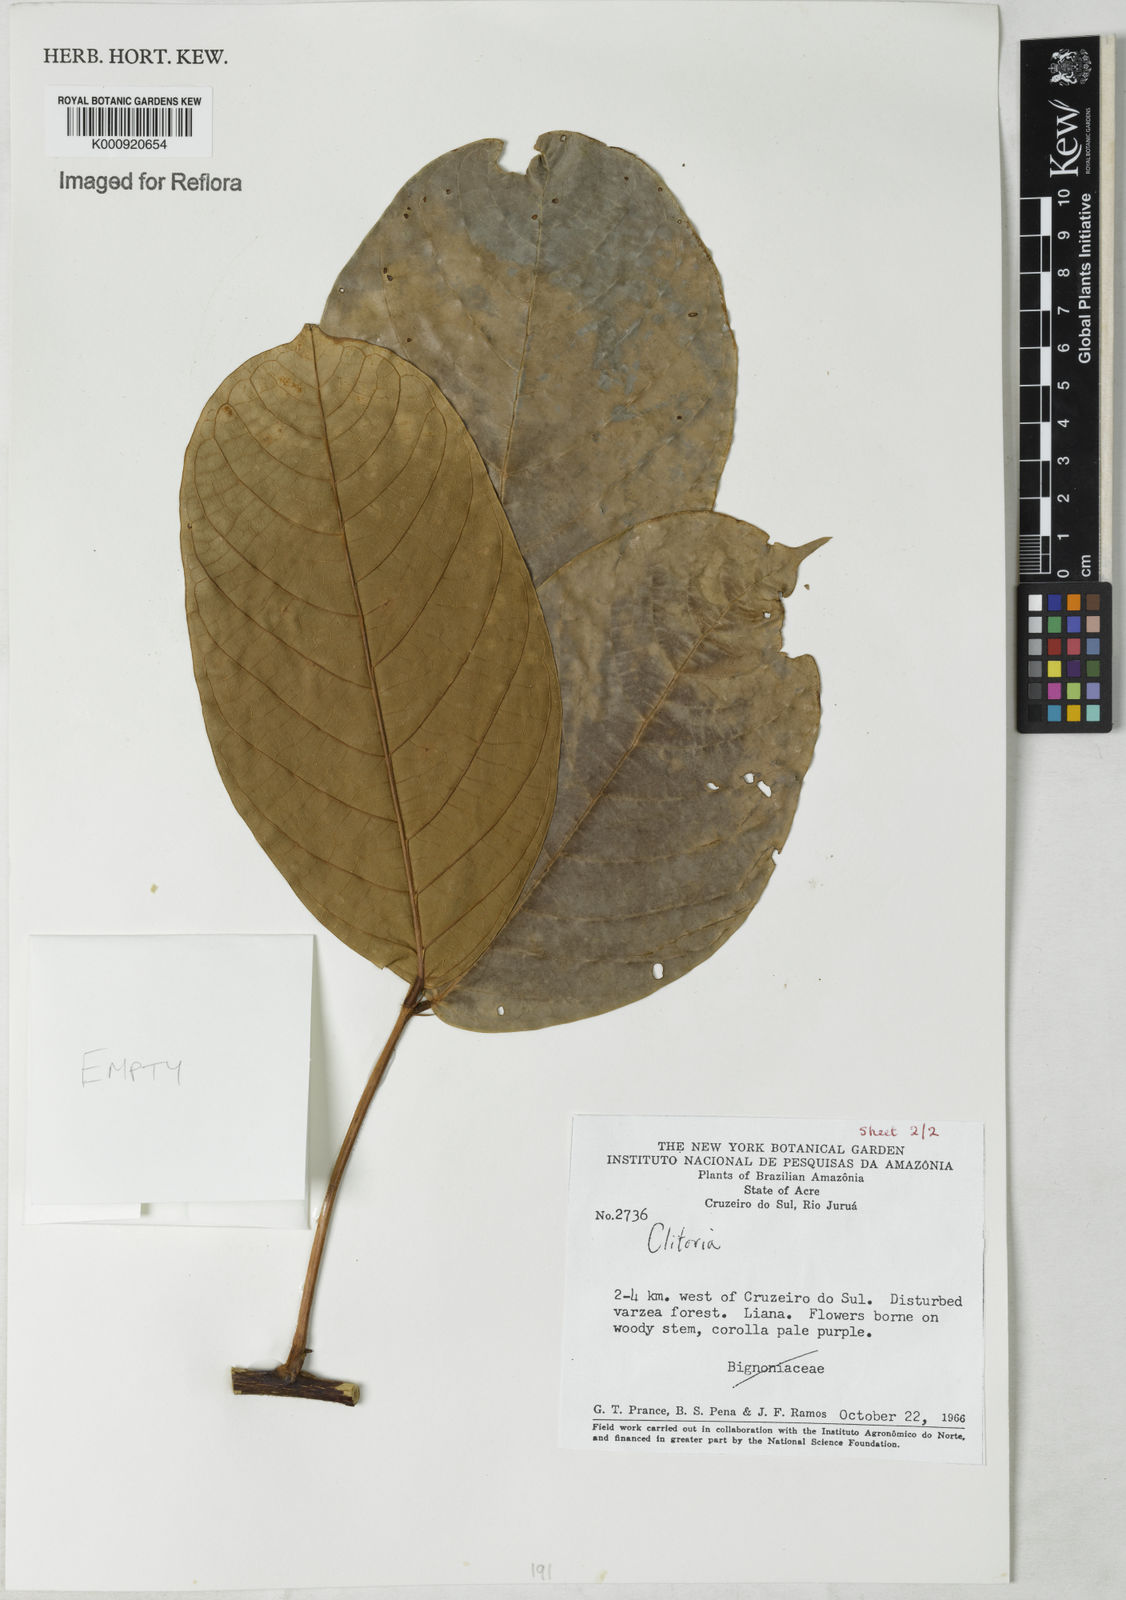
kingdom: Plantae
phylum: Tracheophyta
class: Magnoliopsida
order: Fabales
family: Fabaceae
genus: Clitoria
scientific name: Clitoria
